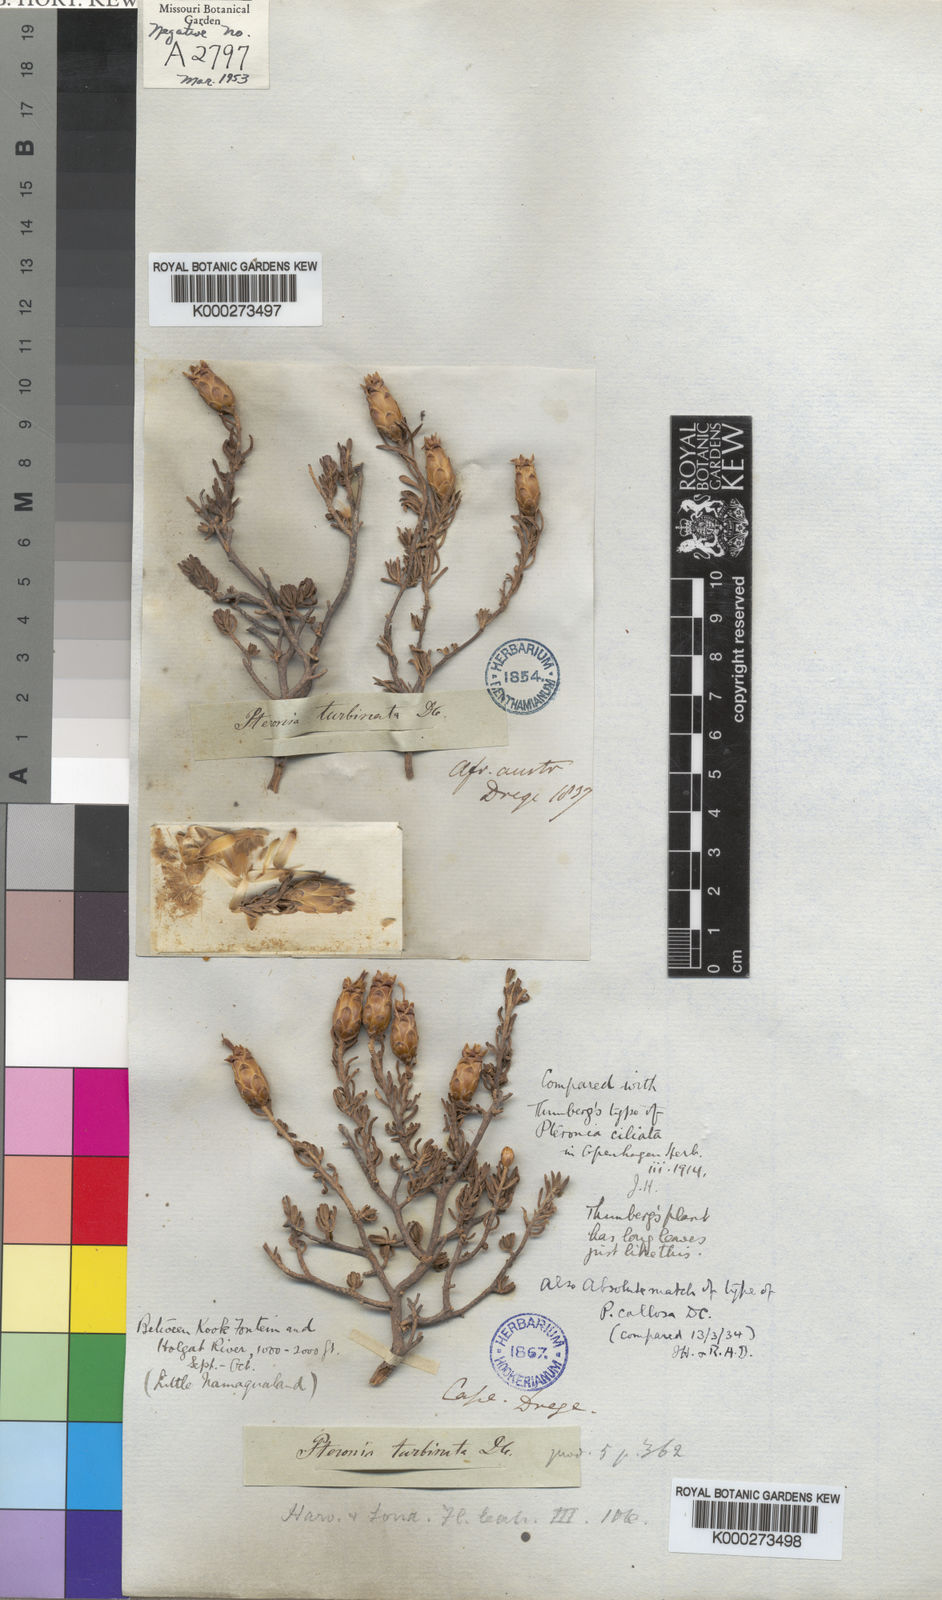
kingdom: Plantae
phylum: Tracheophyta
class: Magnoliopsida
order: Asterales
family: Asteraceae
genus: Pteronia
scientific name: Pteronia ciliata
